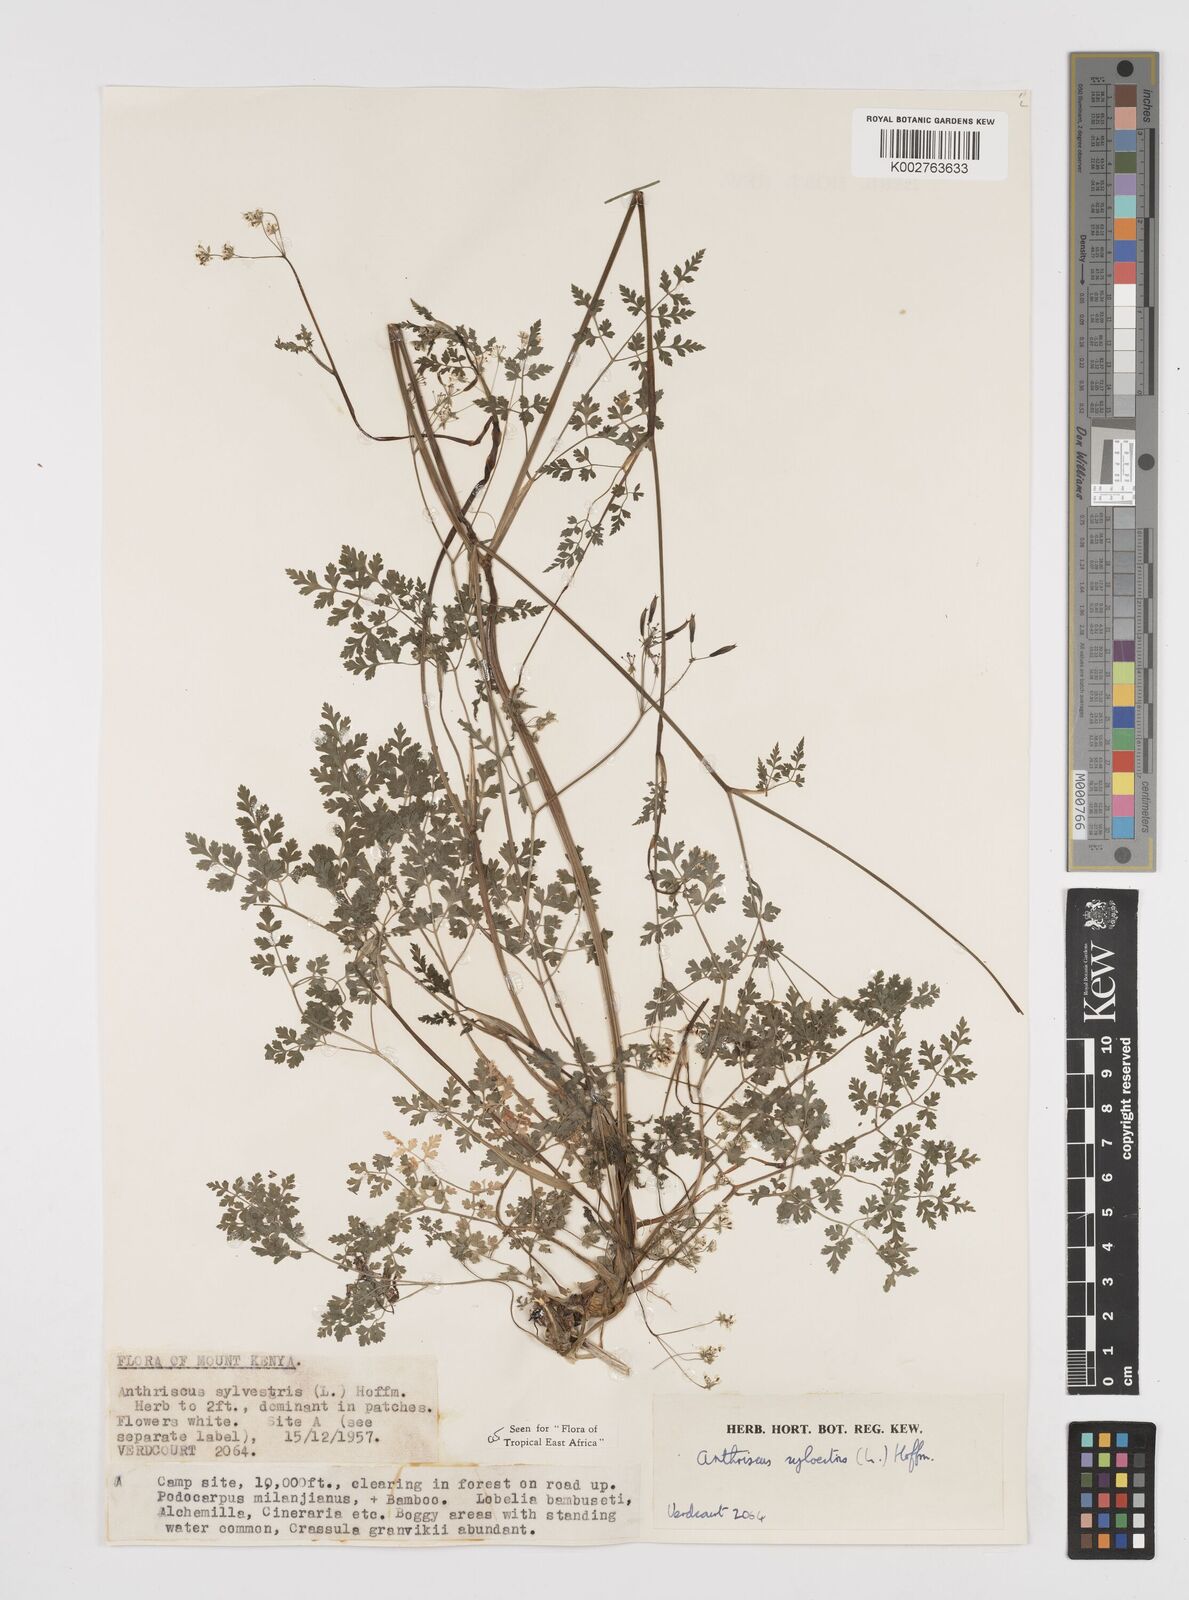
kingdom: Plantae
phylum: Tracheophyta
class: Magnoliopsida
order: Apiales
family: Apiaceae
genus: Anthriscus
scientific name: Anthriscus sylvestris
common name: Cow parsley
